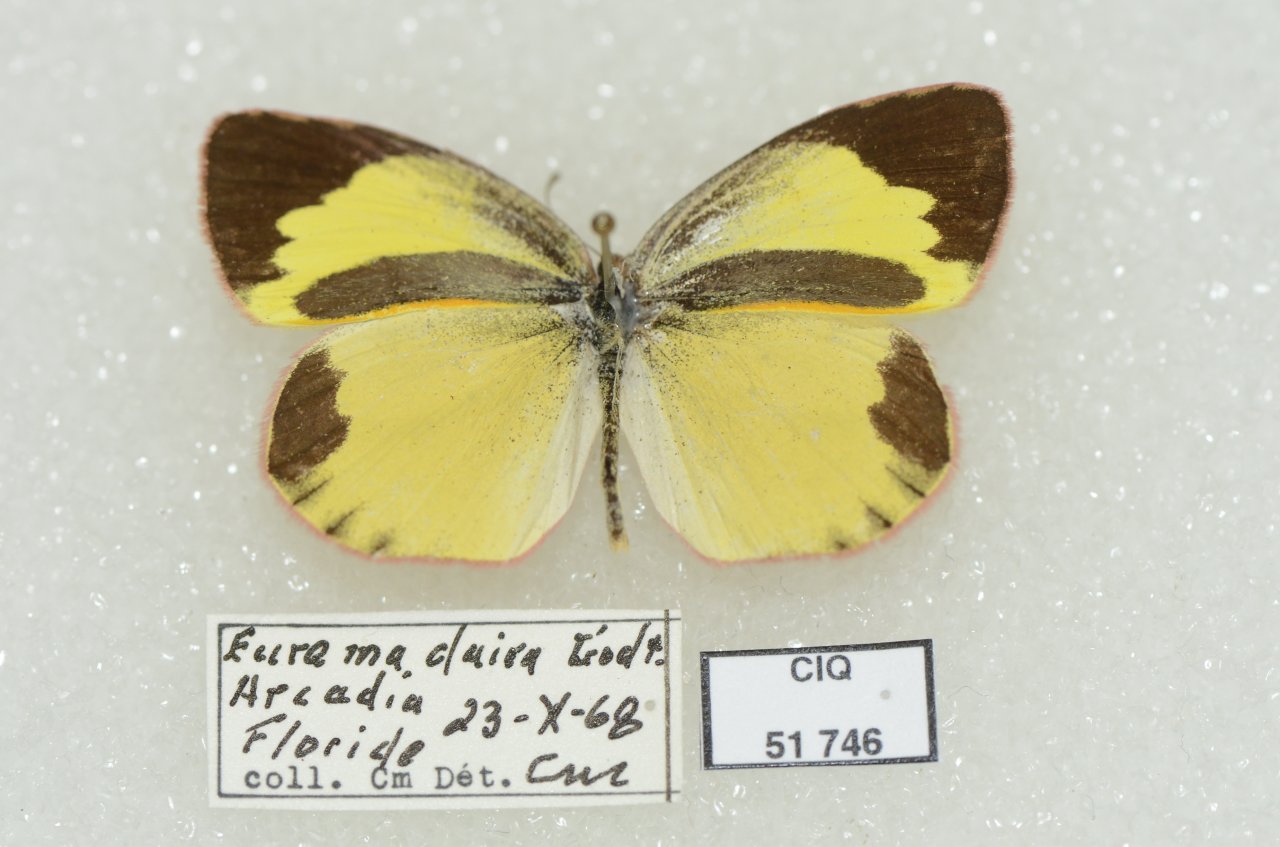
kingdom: Animalia
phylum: Arthropoda
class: Insecta
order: Lepidoptera
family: Pieridae
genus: Eurema
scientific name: Eurema daira
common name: Barred Yellow
